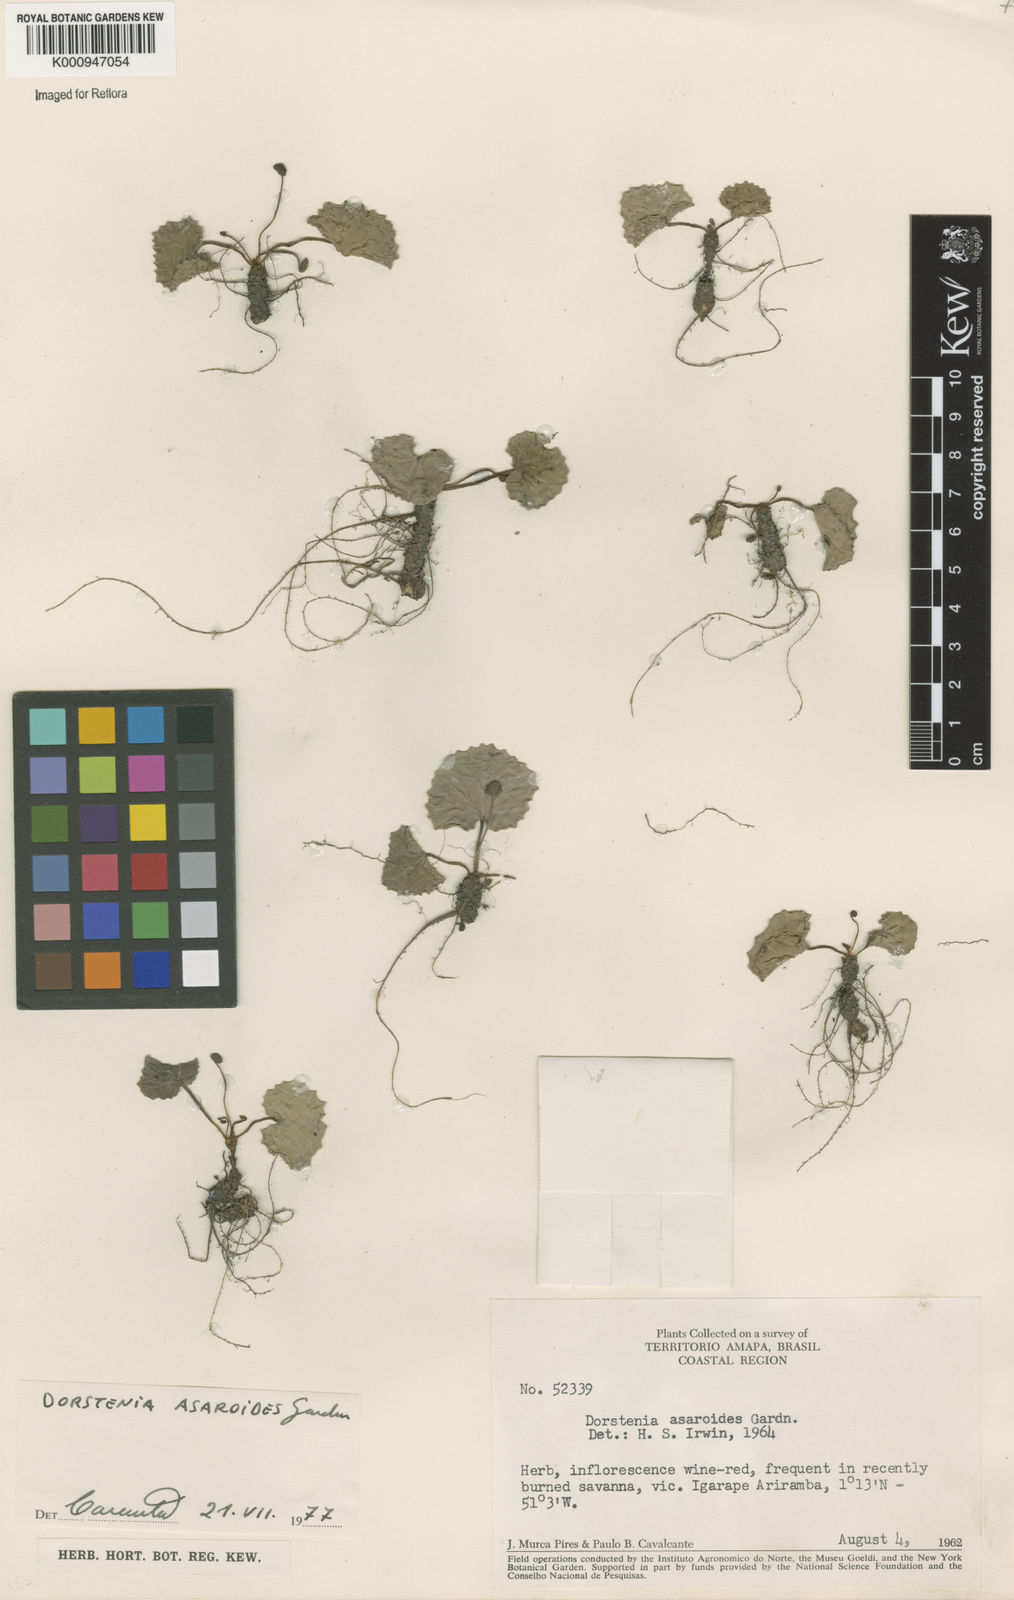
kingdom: Plantae
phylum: Tracheophyta
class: Magnoliopsida
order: Rosales
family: Moraceae
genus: Dorstenia
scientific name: Dorstenia
